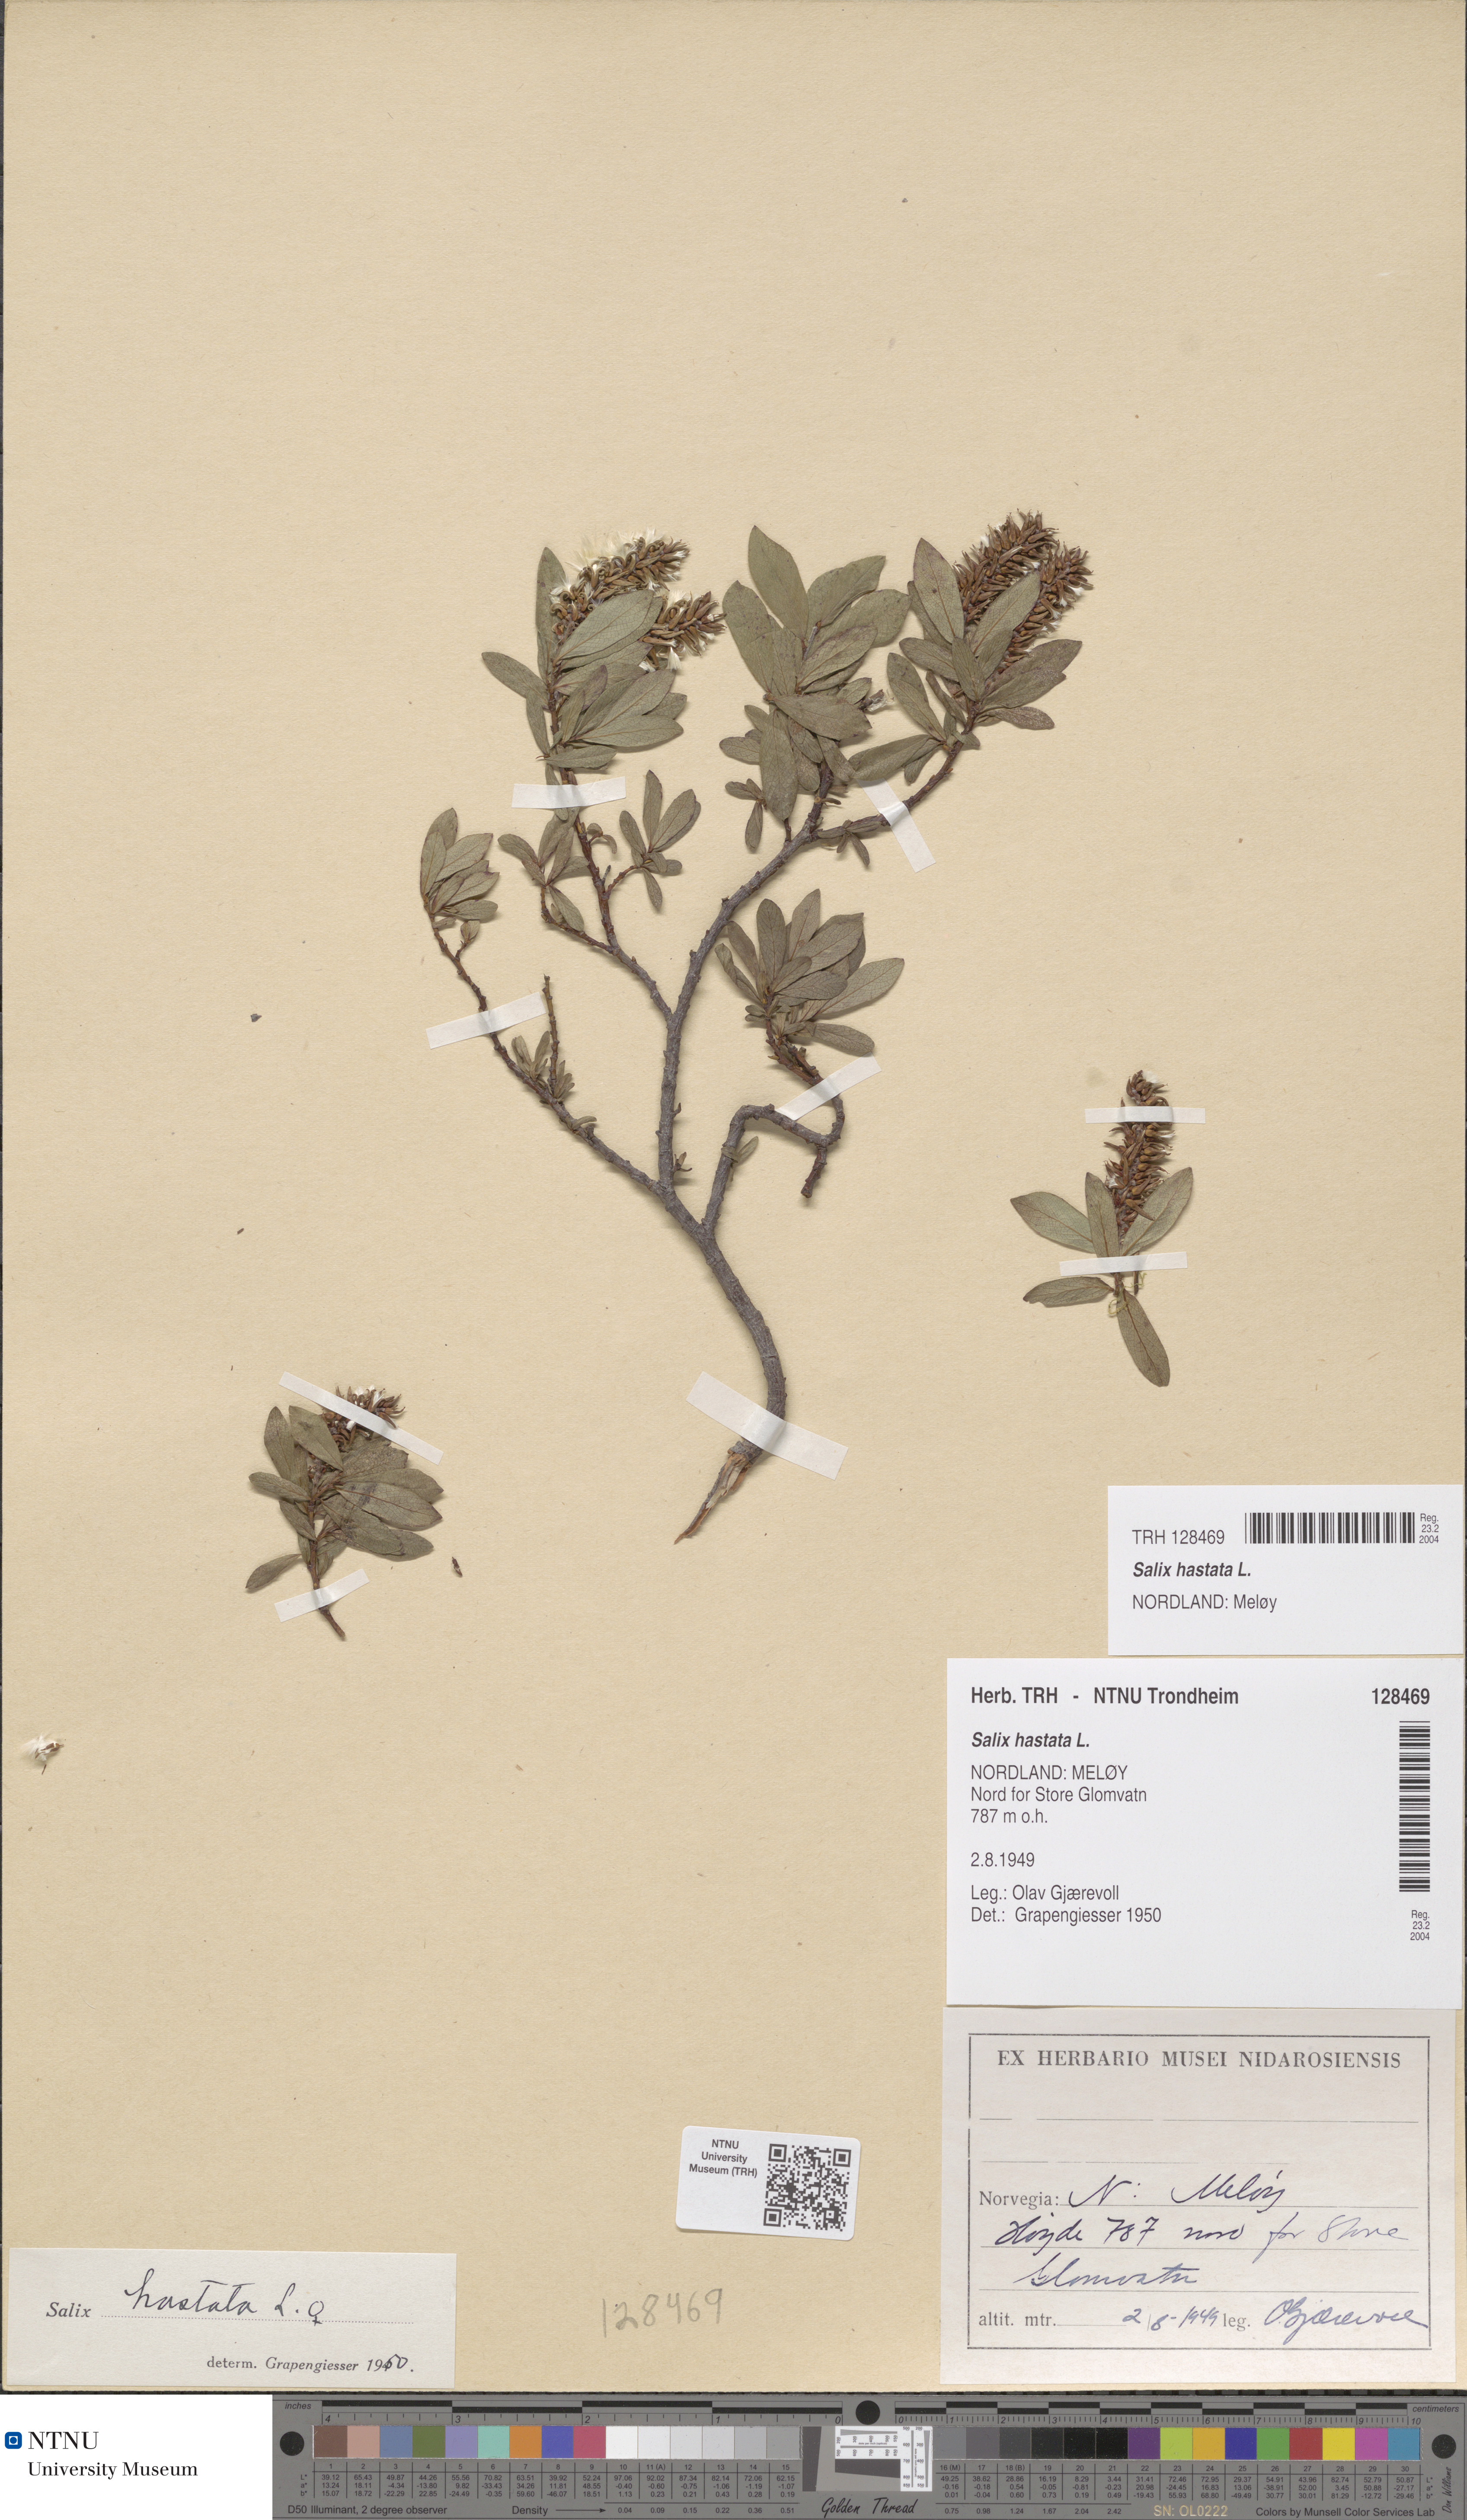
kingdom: Plantae
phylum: Tracheophyta
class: Magnoliopsida
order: Malpighiales
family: Salicaceae
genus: Salix
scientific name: Salix hastata
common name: Halberd willow
